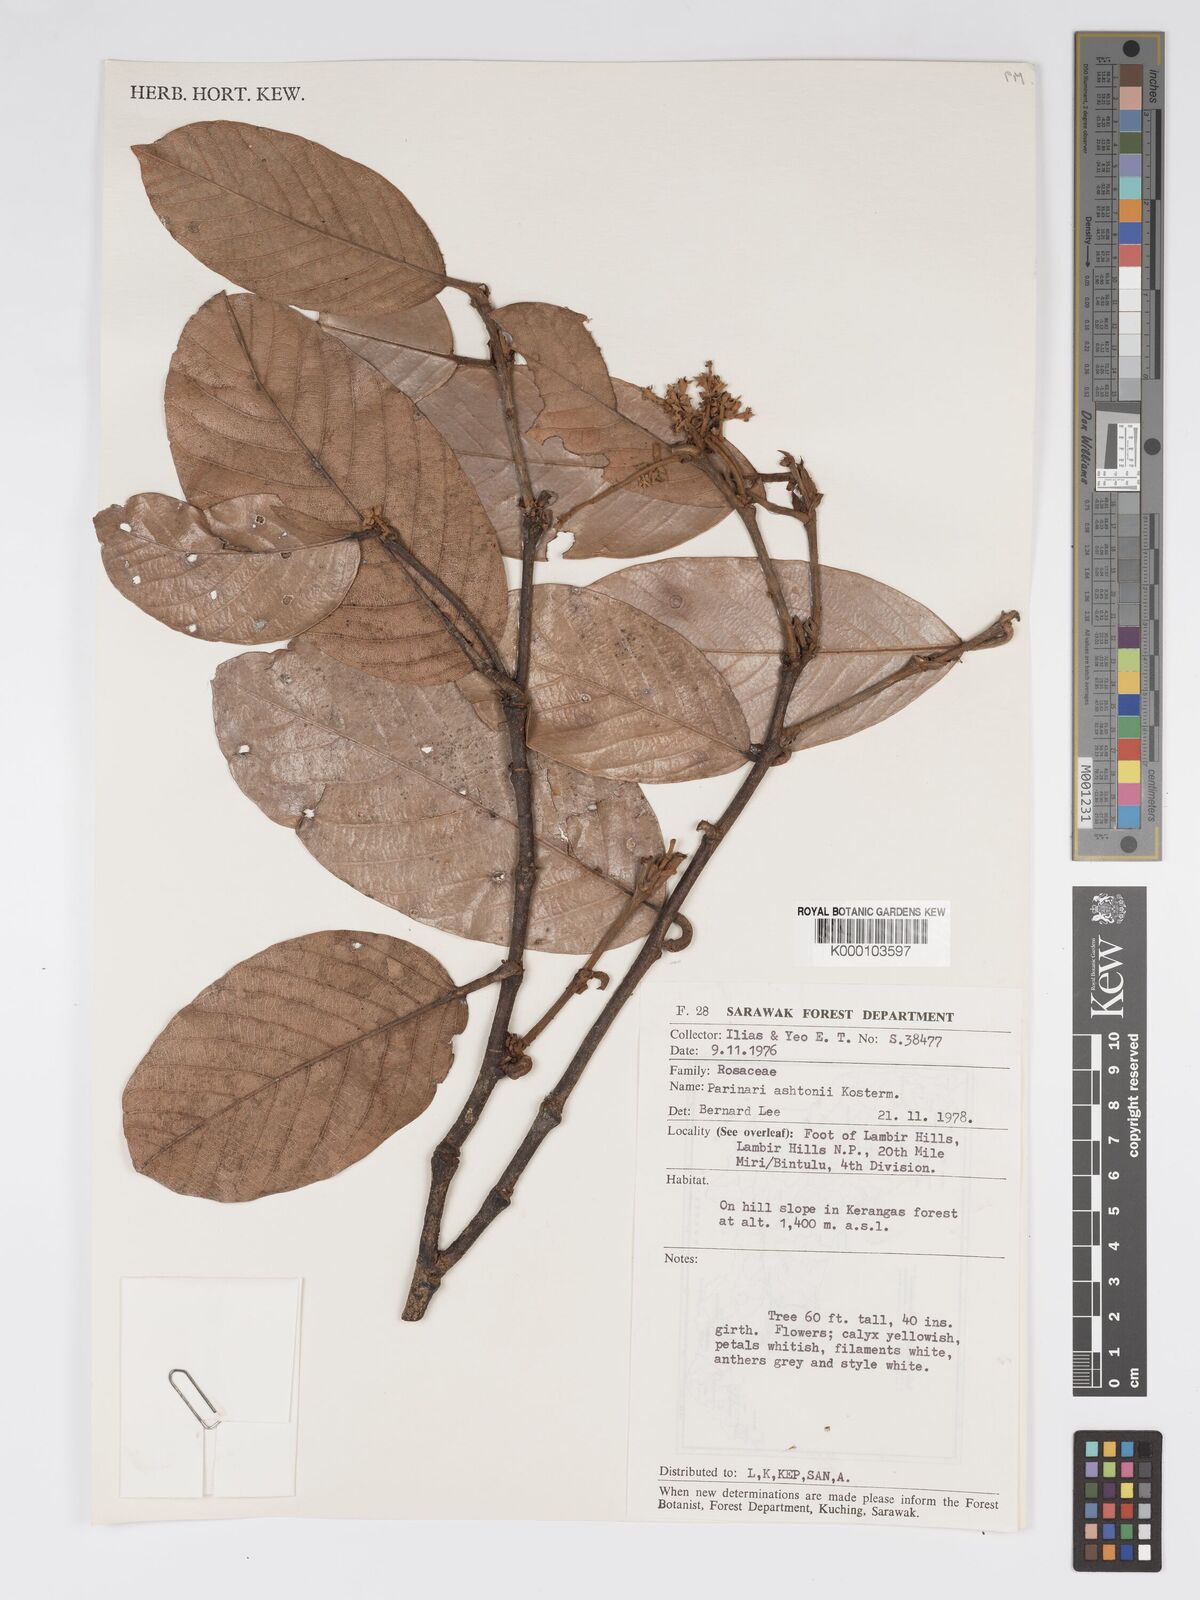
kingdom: Plantae
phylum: Tracheophyta
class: Magnoliopsida
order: Malpighiales
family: Chrysobalanaceae
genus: Parinari
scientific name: Parinari rigida
